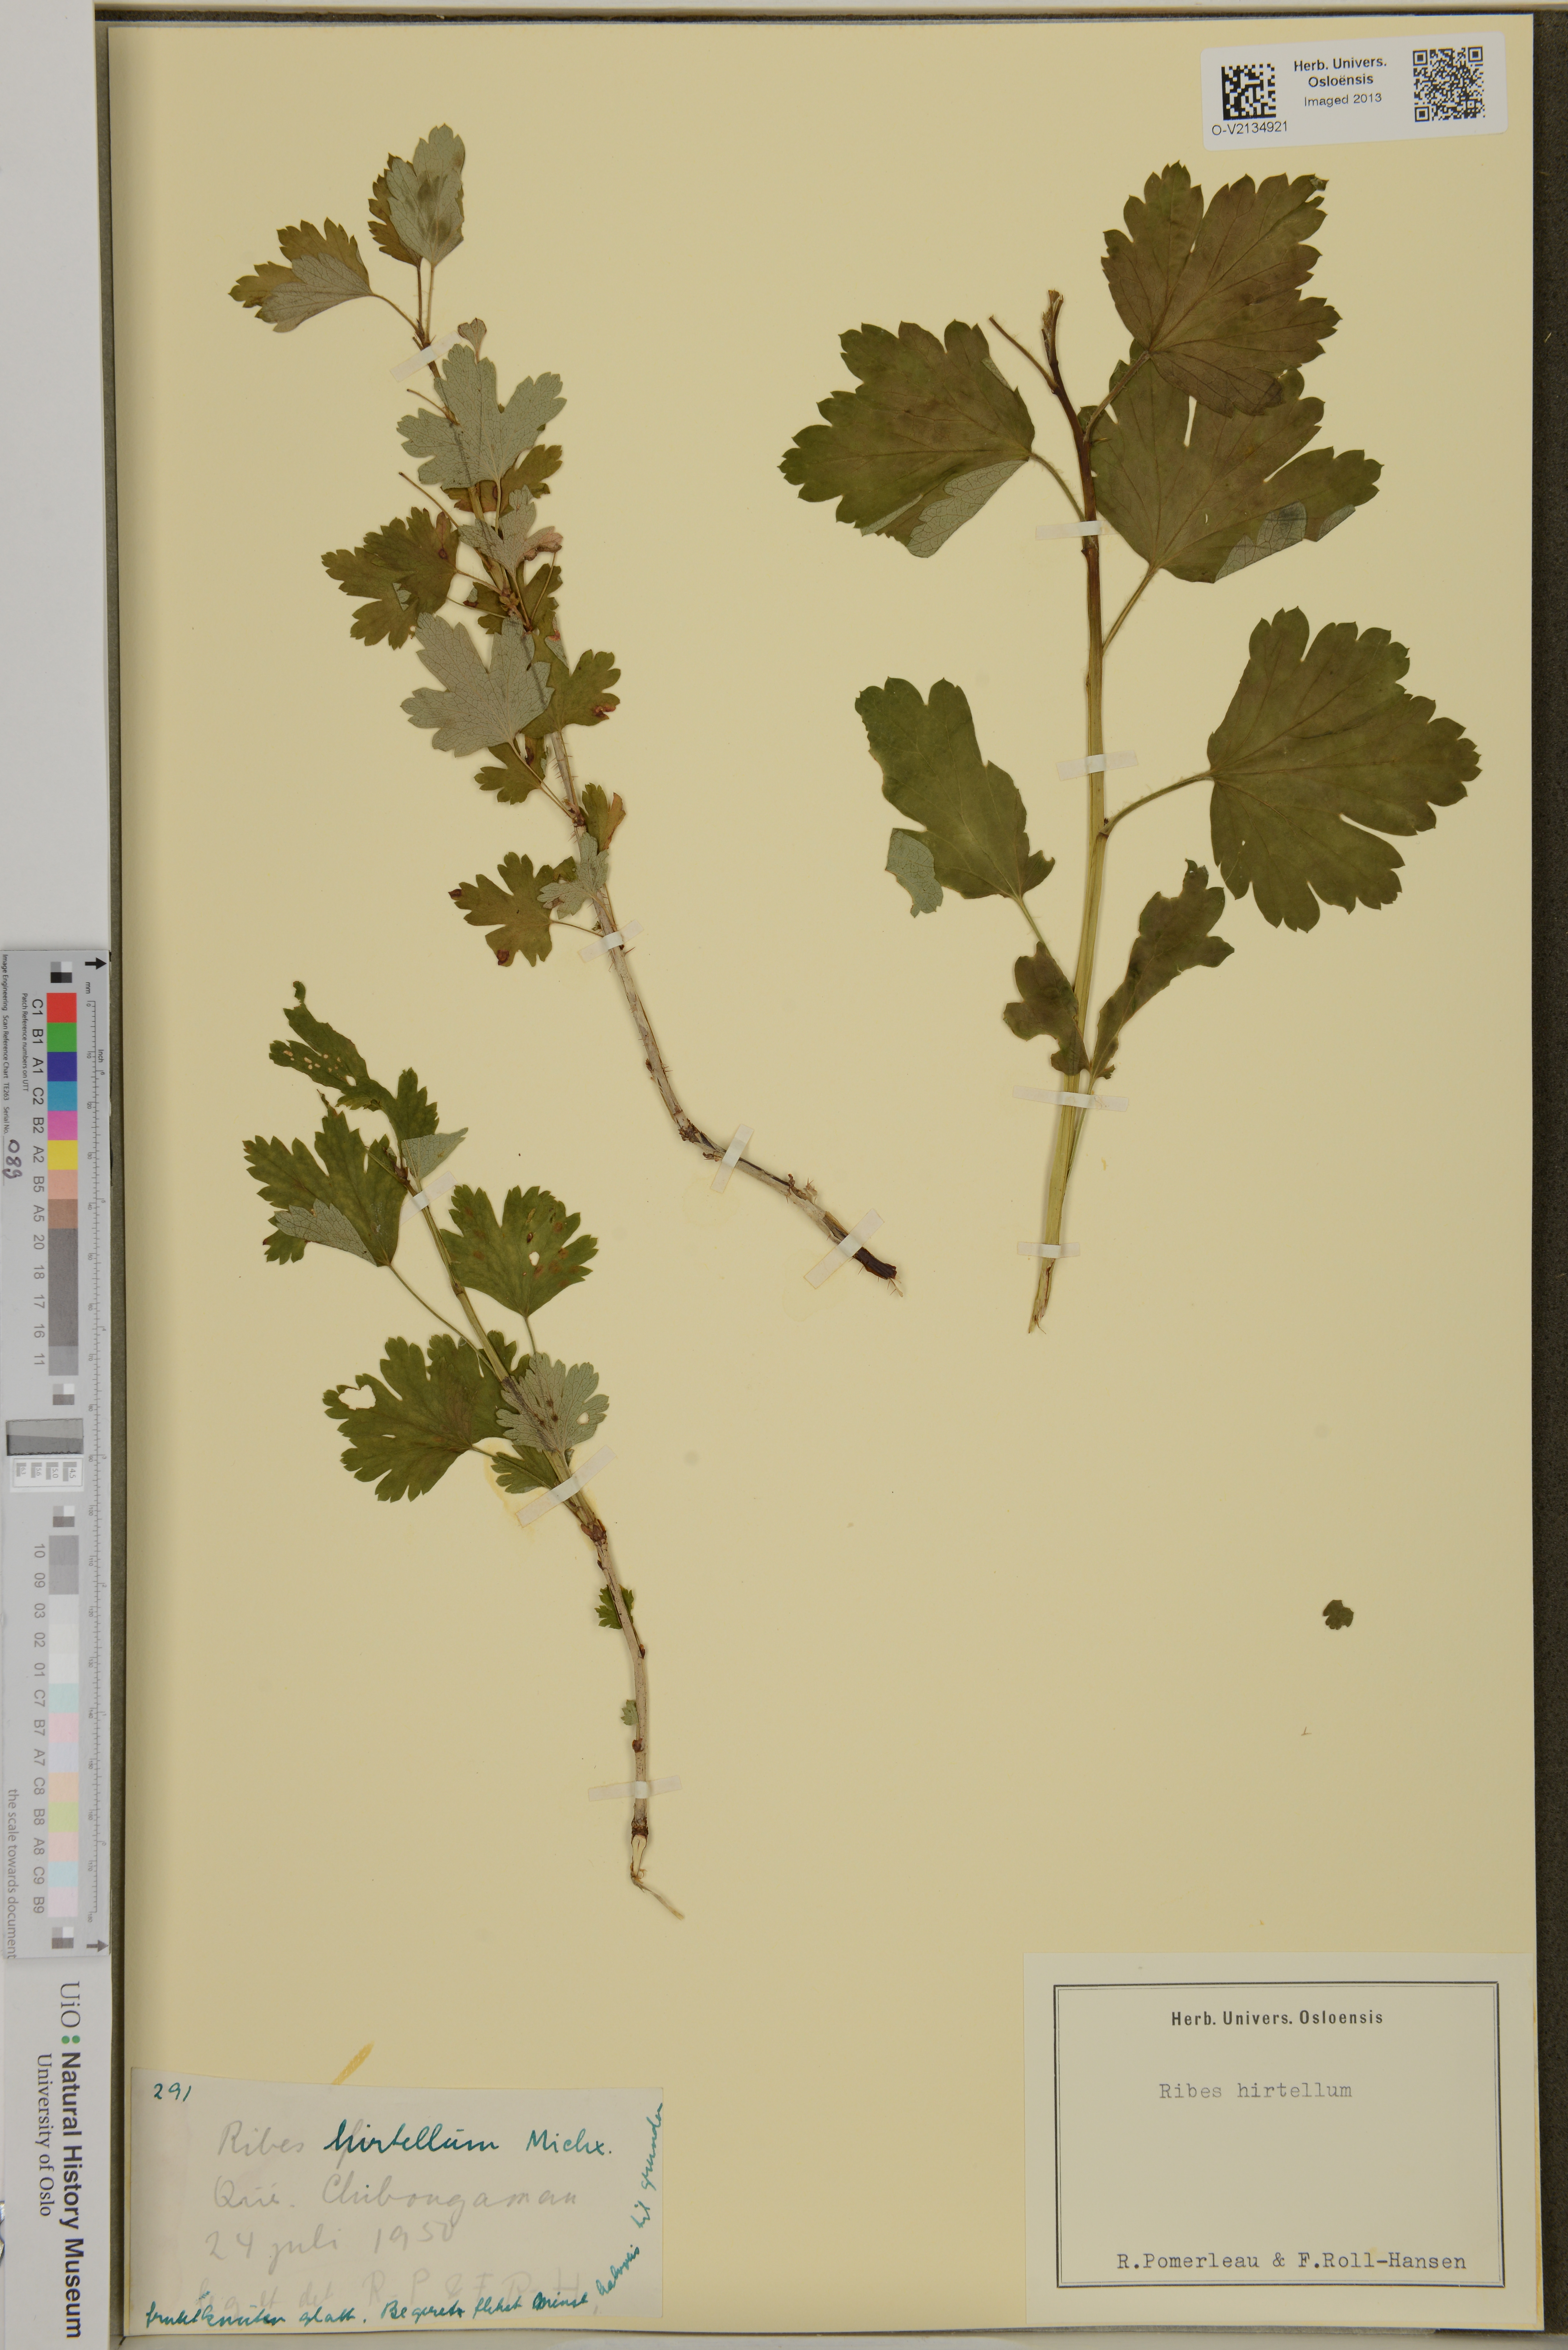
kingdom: Plantae
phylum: Tracheophyta
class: Magnoliopsida
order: Saxifragales
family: Grossulariaceae
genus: Ribes
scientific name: Ribes hirtellum
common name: Hairy gooseberry
